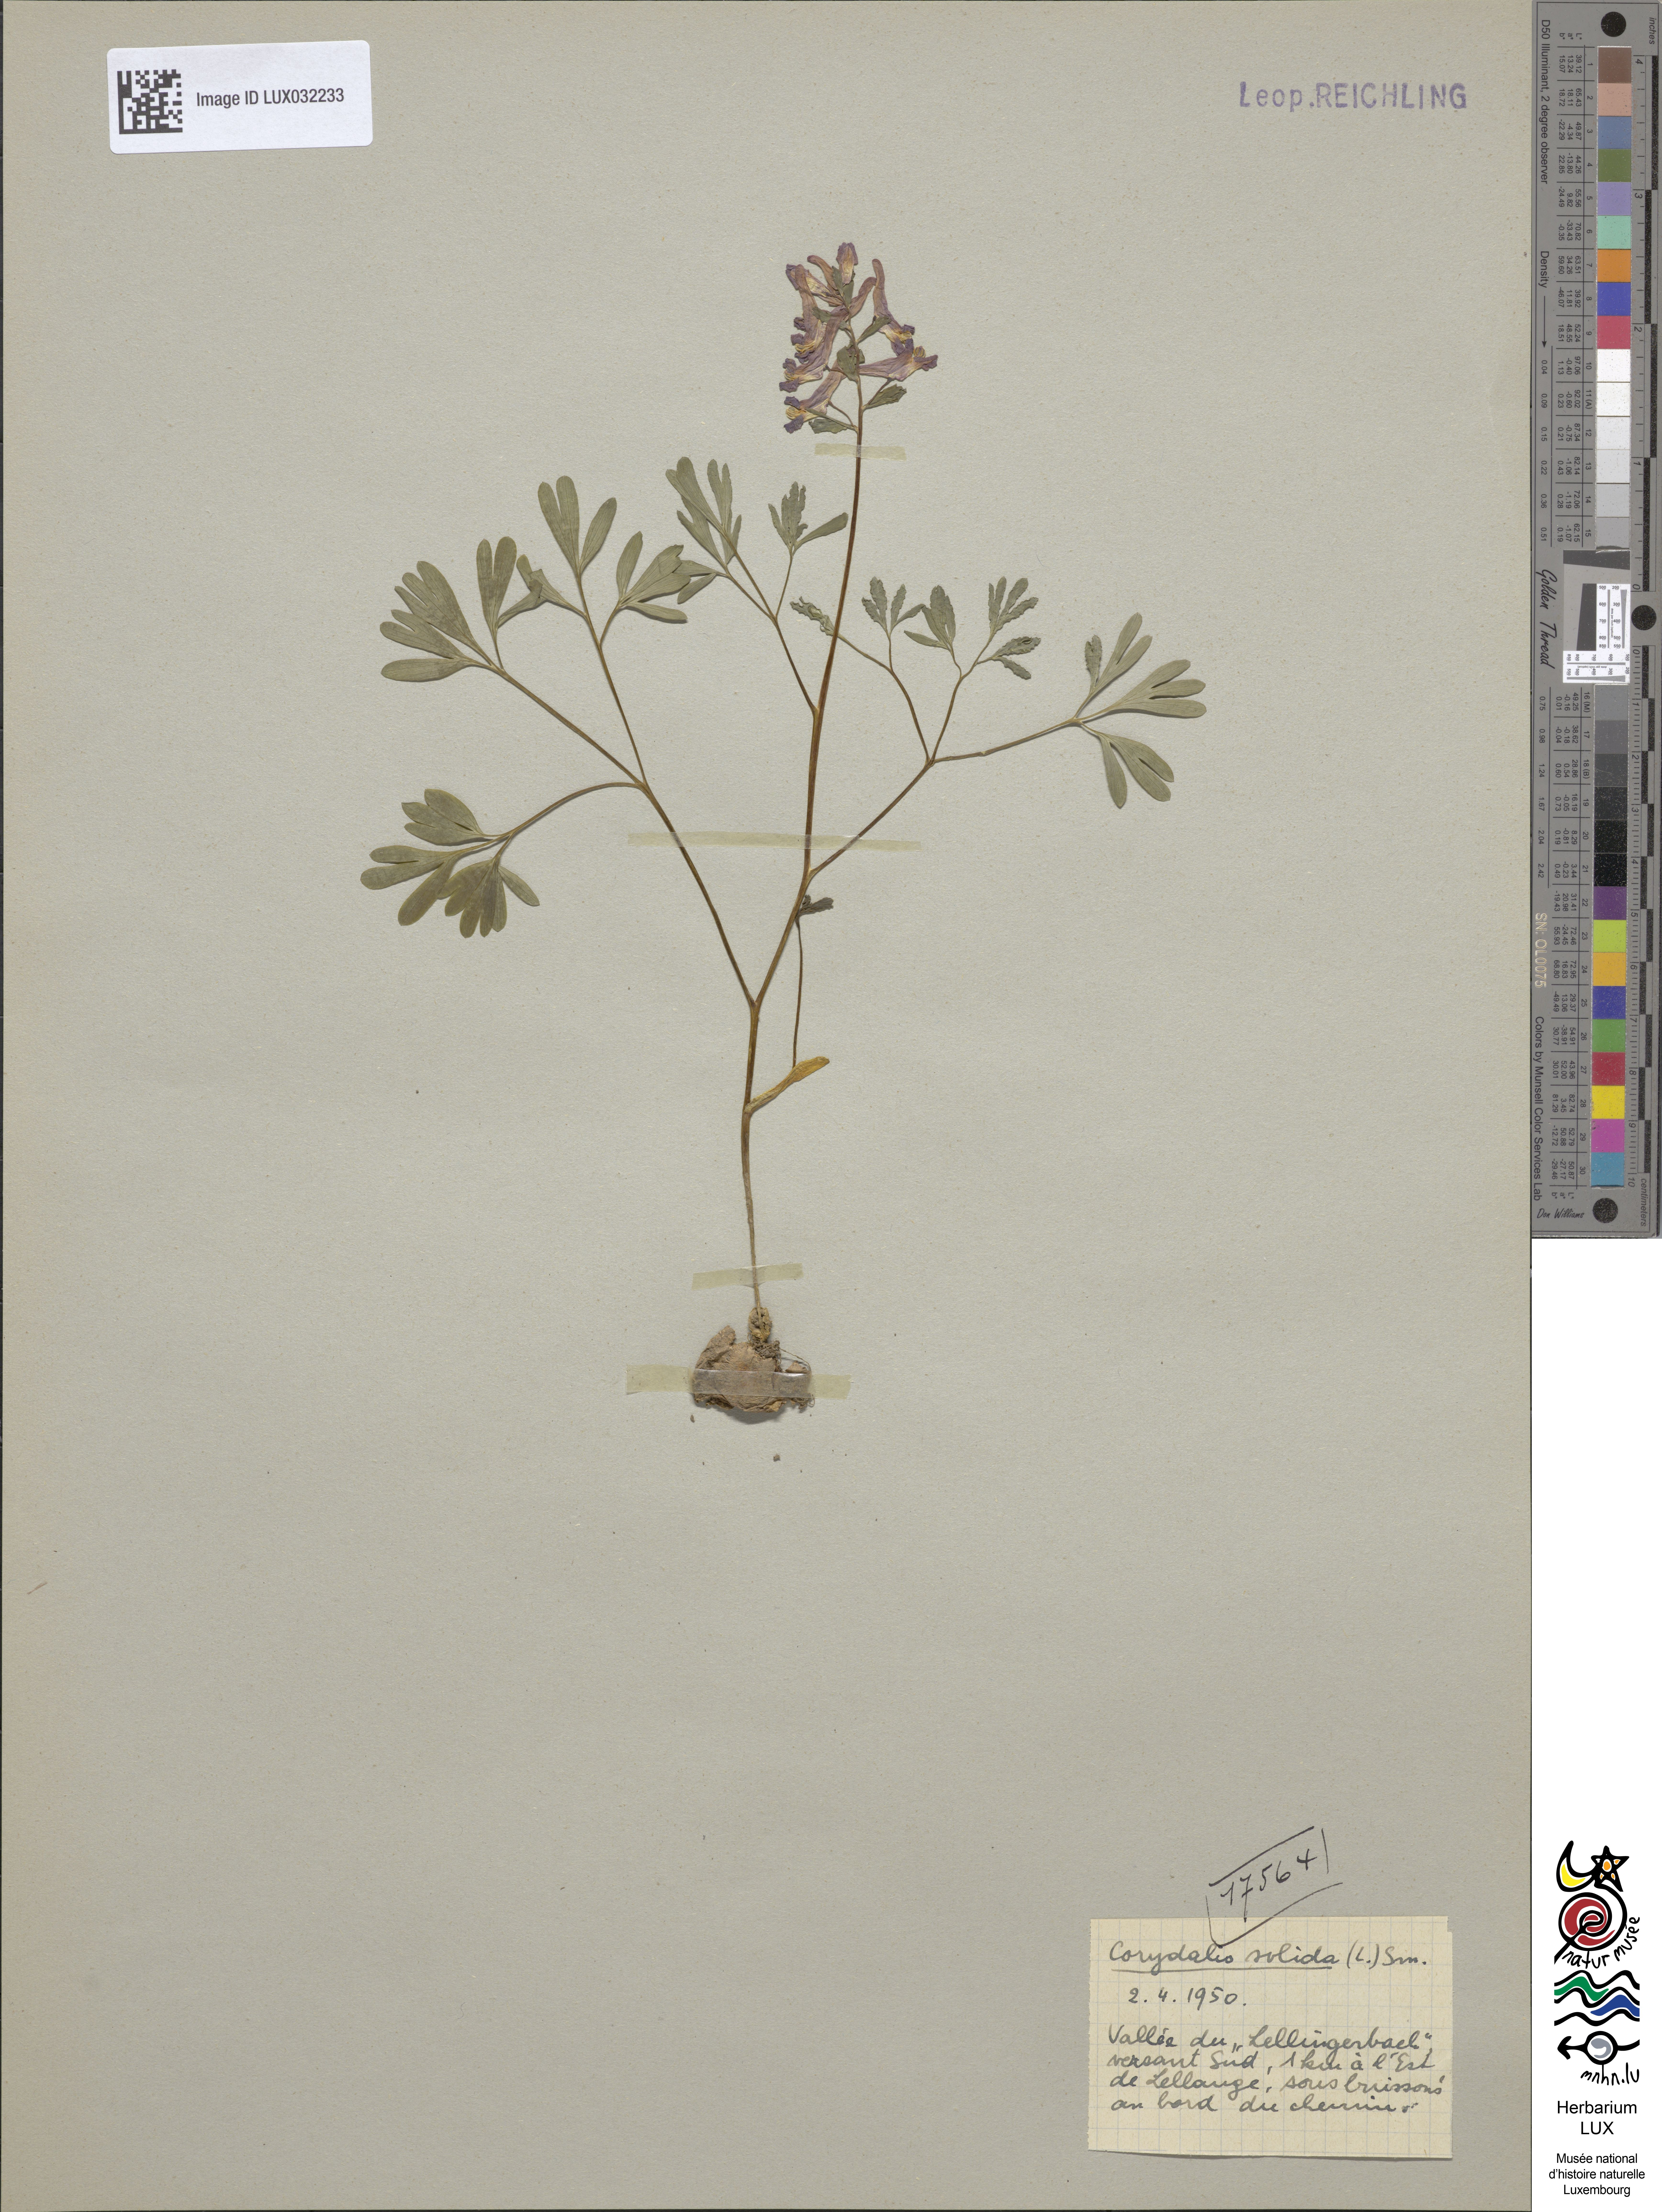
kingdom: Plantae
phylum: Tracheophyta
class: Magnoliopsida
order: Ranunculales
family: Papaveraceae
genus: Corydalis
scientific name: Corydalis solida
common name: Bird-in-a-bush
